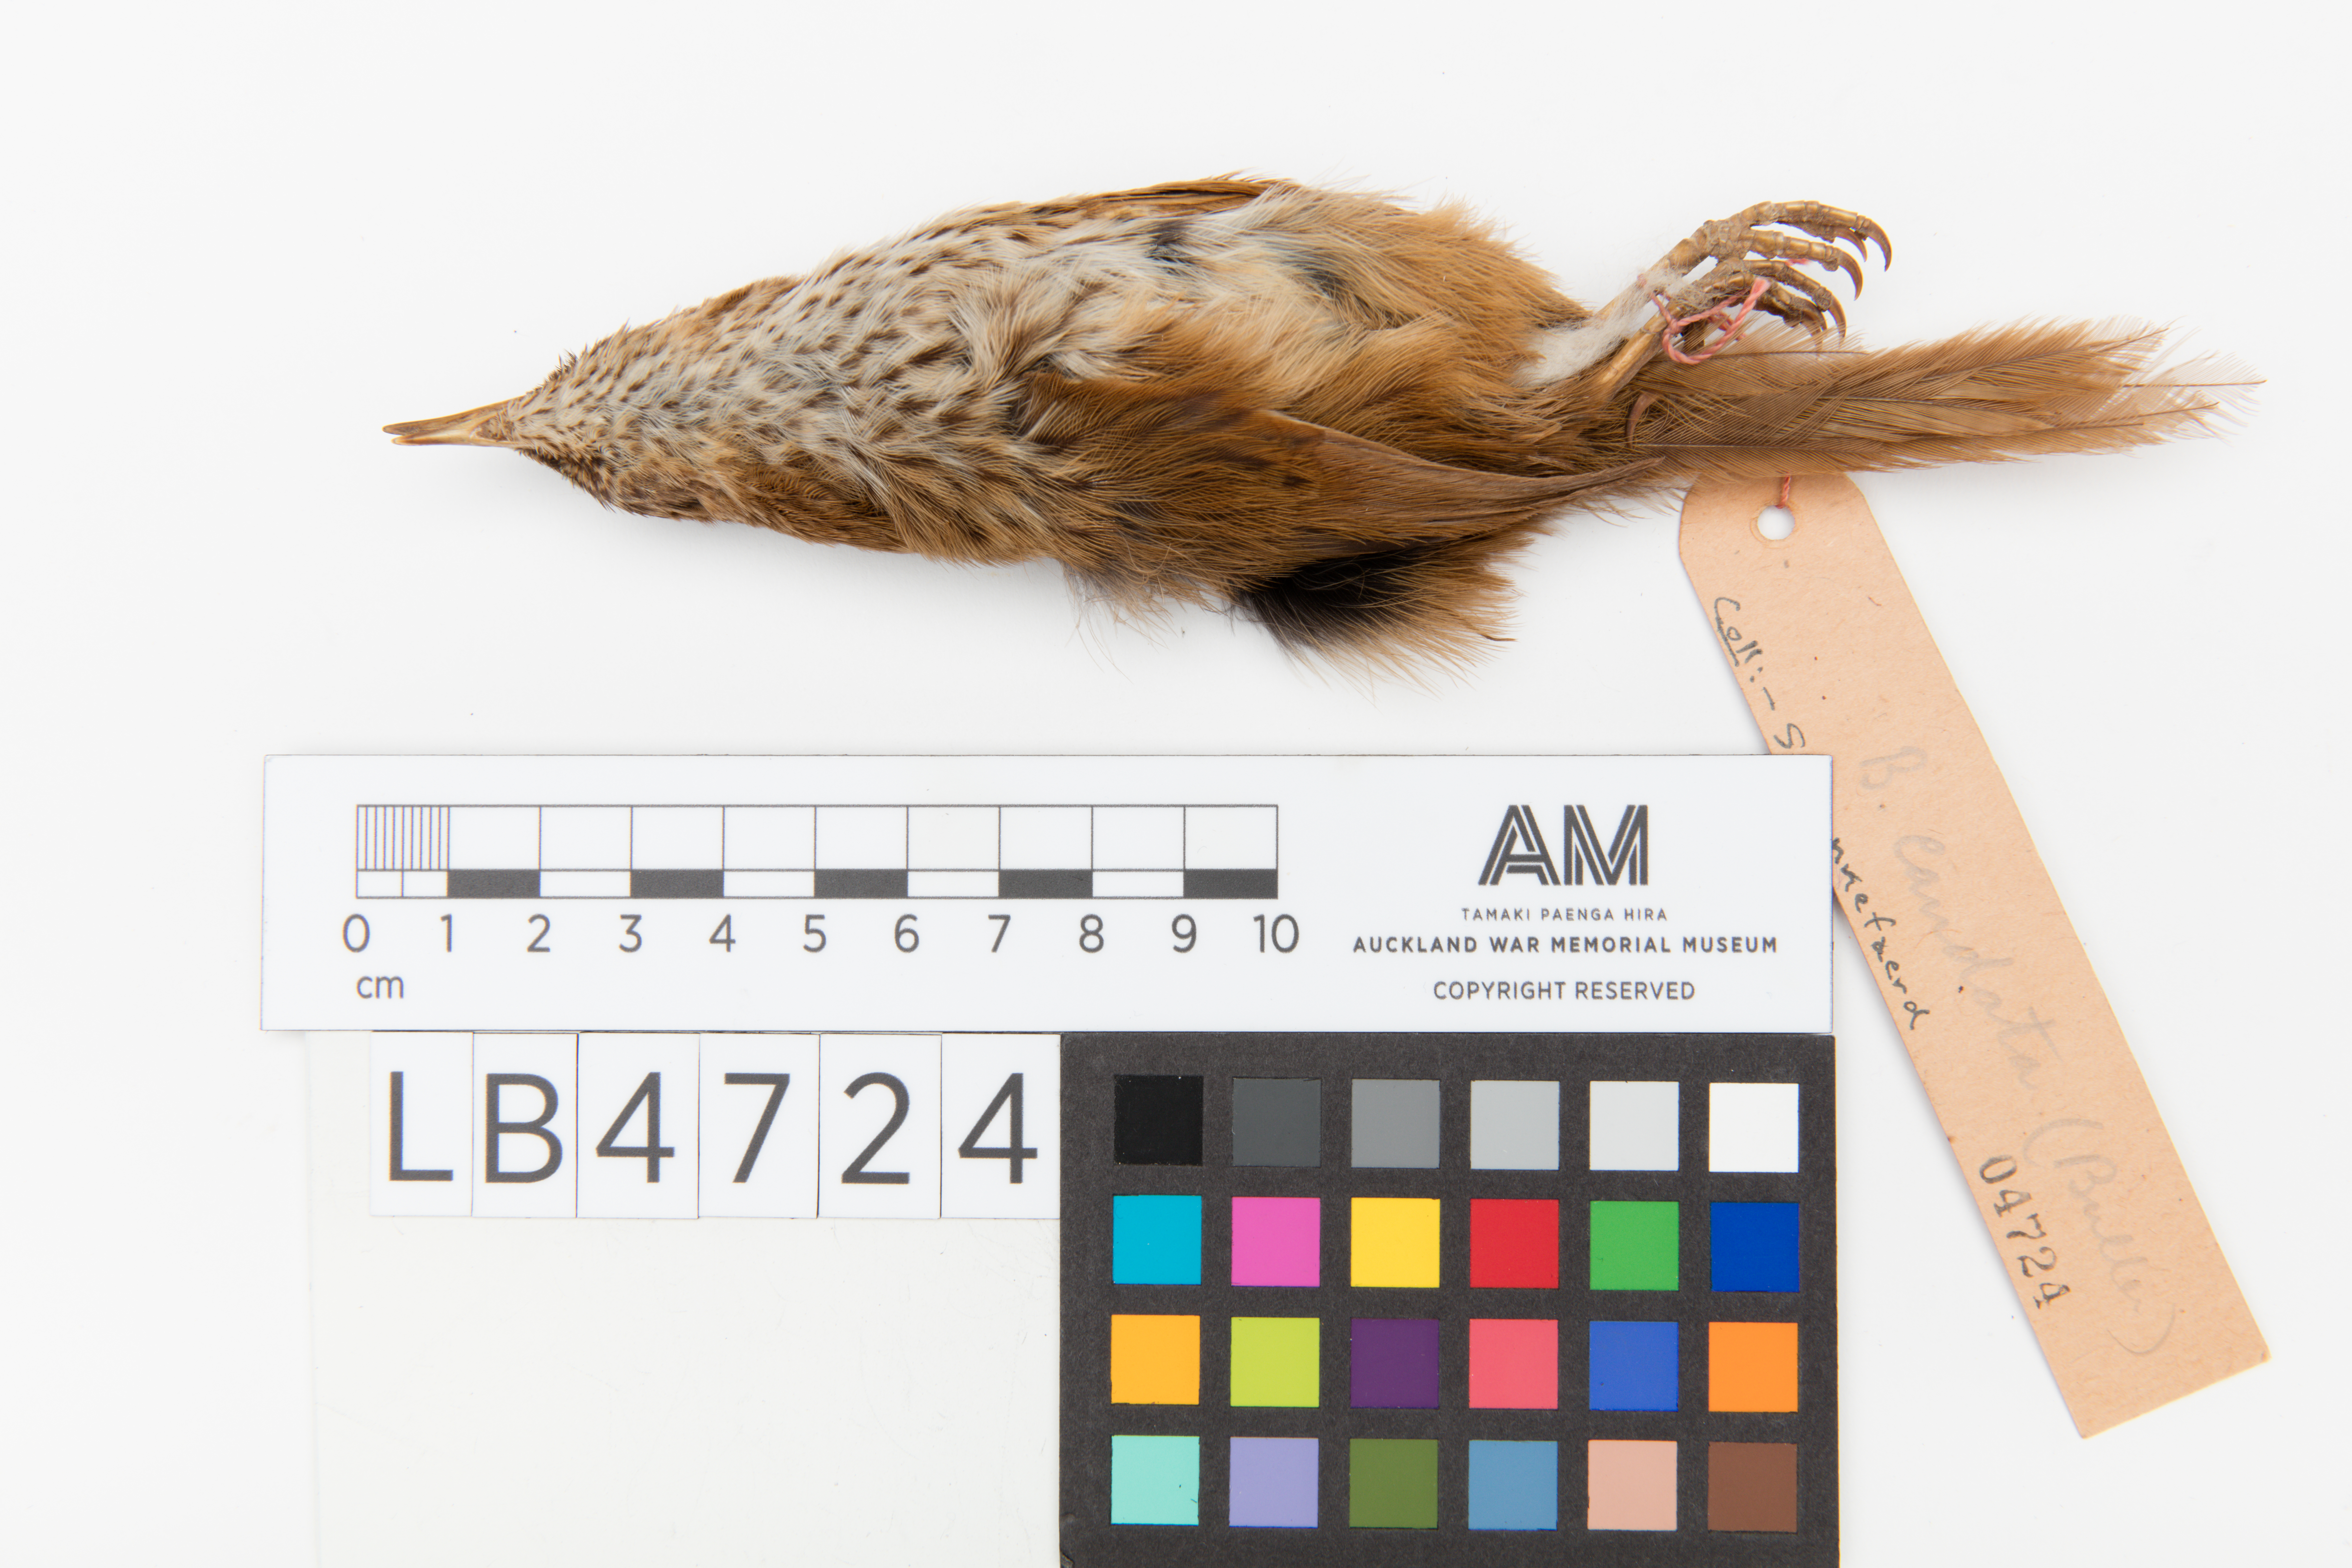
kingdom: Animalia
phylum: Chordata
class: Aves
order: Passeriformes
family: Locustellidae
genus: Megalurus
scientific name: Megalurus punctatus
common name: New zealand fernbird
